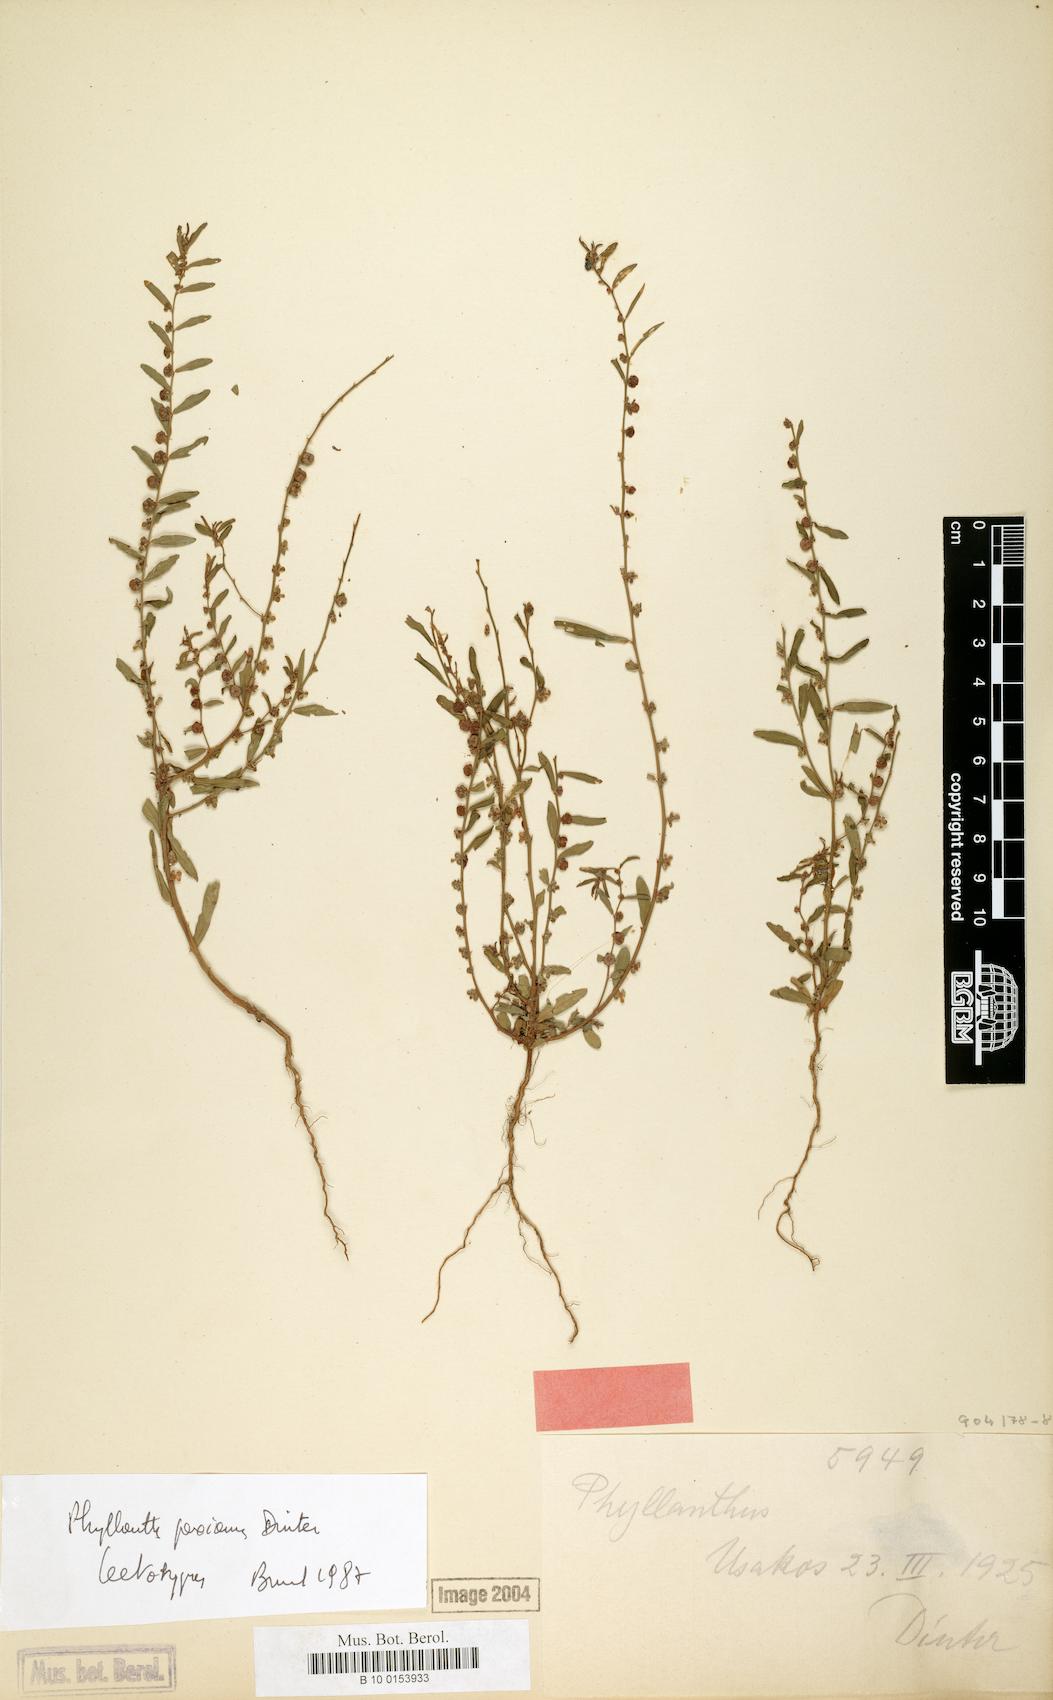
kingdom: Plantae
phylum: Tracheophyta
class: Magnoliopsida
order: Malpighiales
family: Phyllanthaceae
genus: Phyllanthus
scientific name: Phyllanthus paxianus
